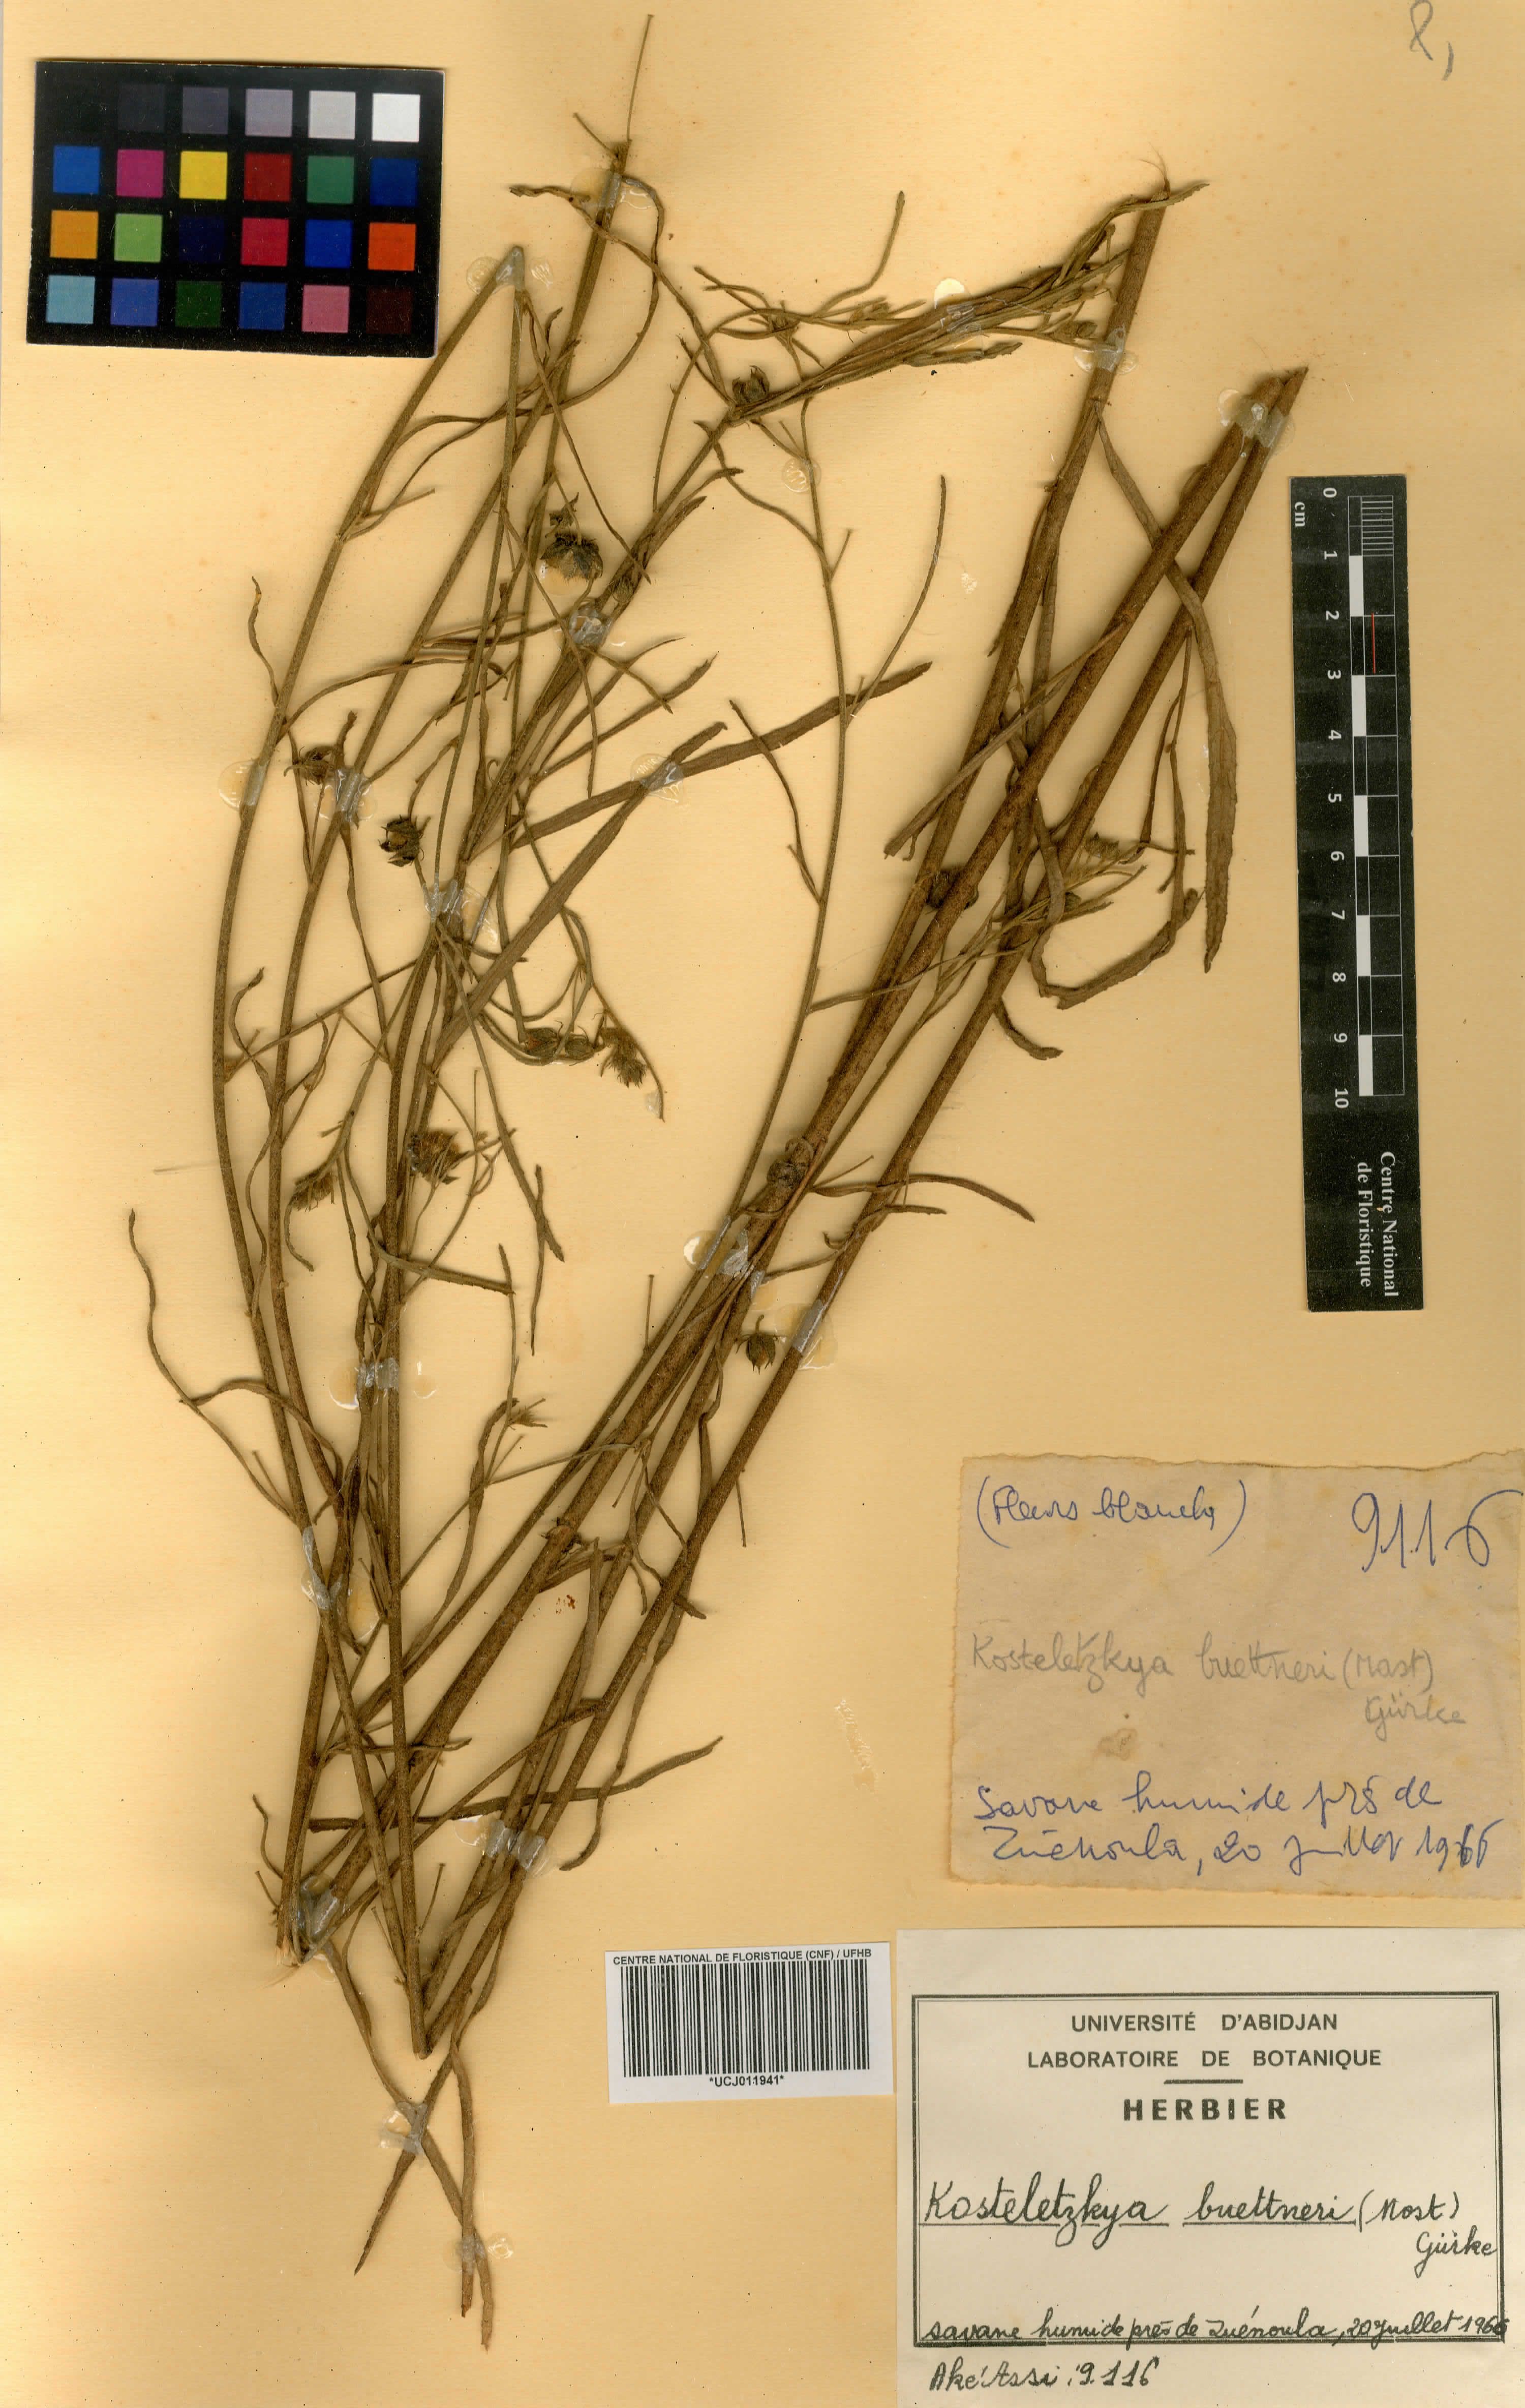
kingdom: Plantae
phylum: Tracheophyta
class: Magnoliopsida
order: Malvales
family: Malvaceae
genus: Kosteletzkya
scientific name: Kosteletzkya buettneri
